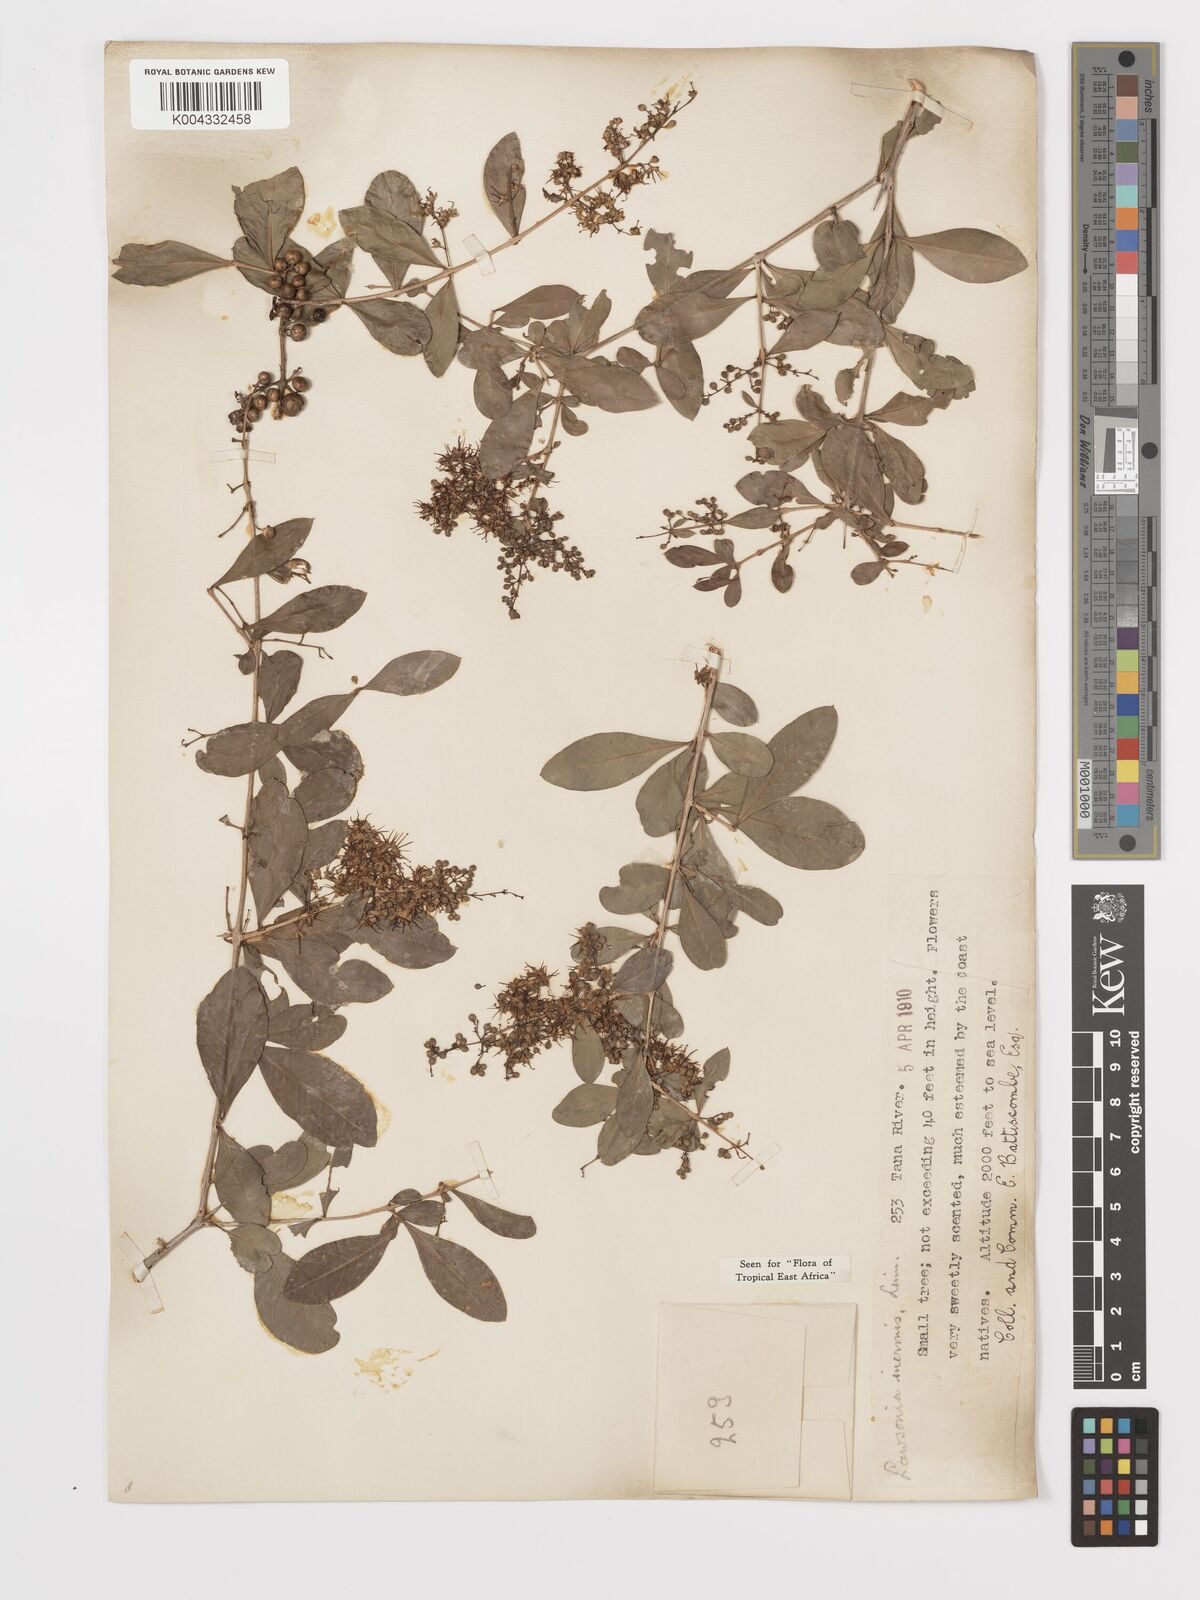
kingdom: Plantae
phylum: Tracheophyta
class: Magnoliopsida
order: Myrtales
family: Lythraceae
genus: Lawsonia
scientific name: Lawsonia inermis
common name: Henna
